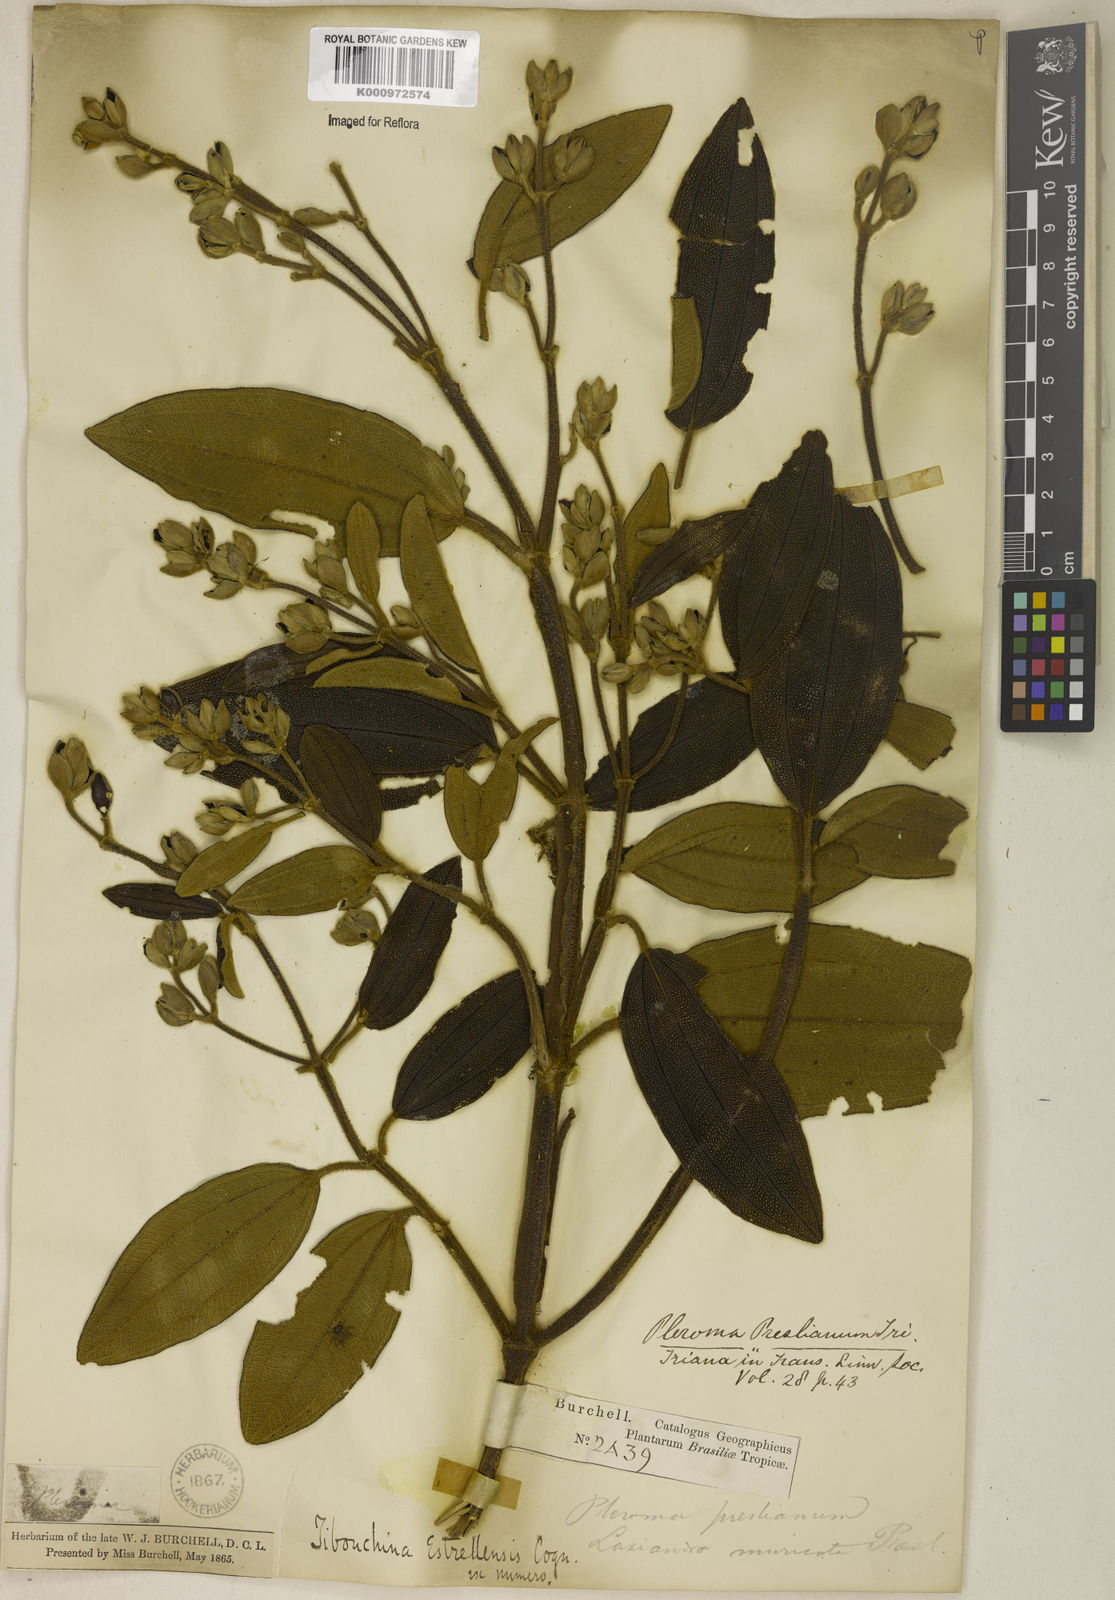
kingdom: Plantae
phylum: Tracheophyta
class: Magnoliopsida
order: Myrtales
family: Melastomataceae
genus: Pleroma
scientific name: Pleroma estrellense
